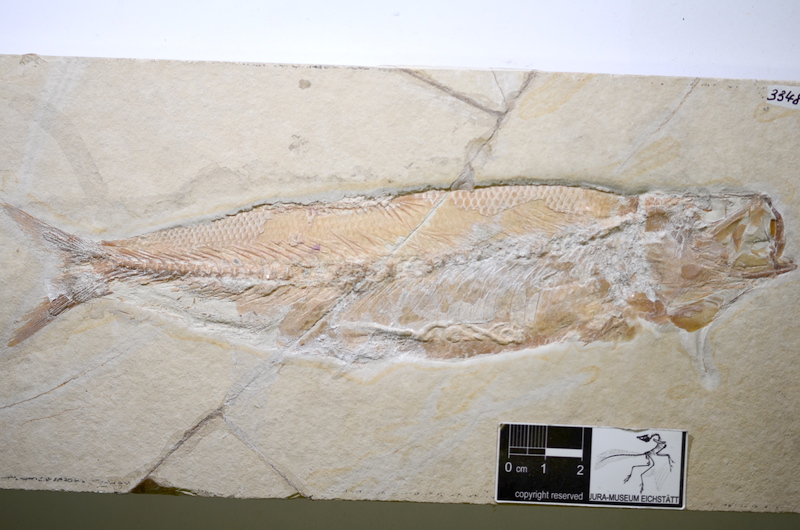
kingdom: Animalia
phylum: Chordata
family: Ascalaboidae
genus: Tharsis
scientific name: Tharsis dubius
